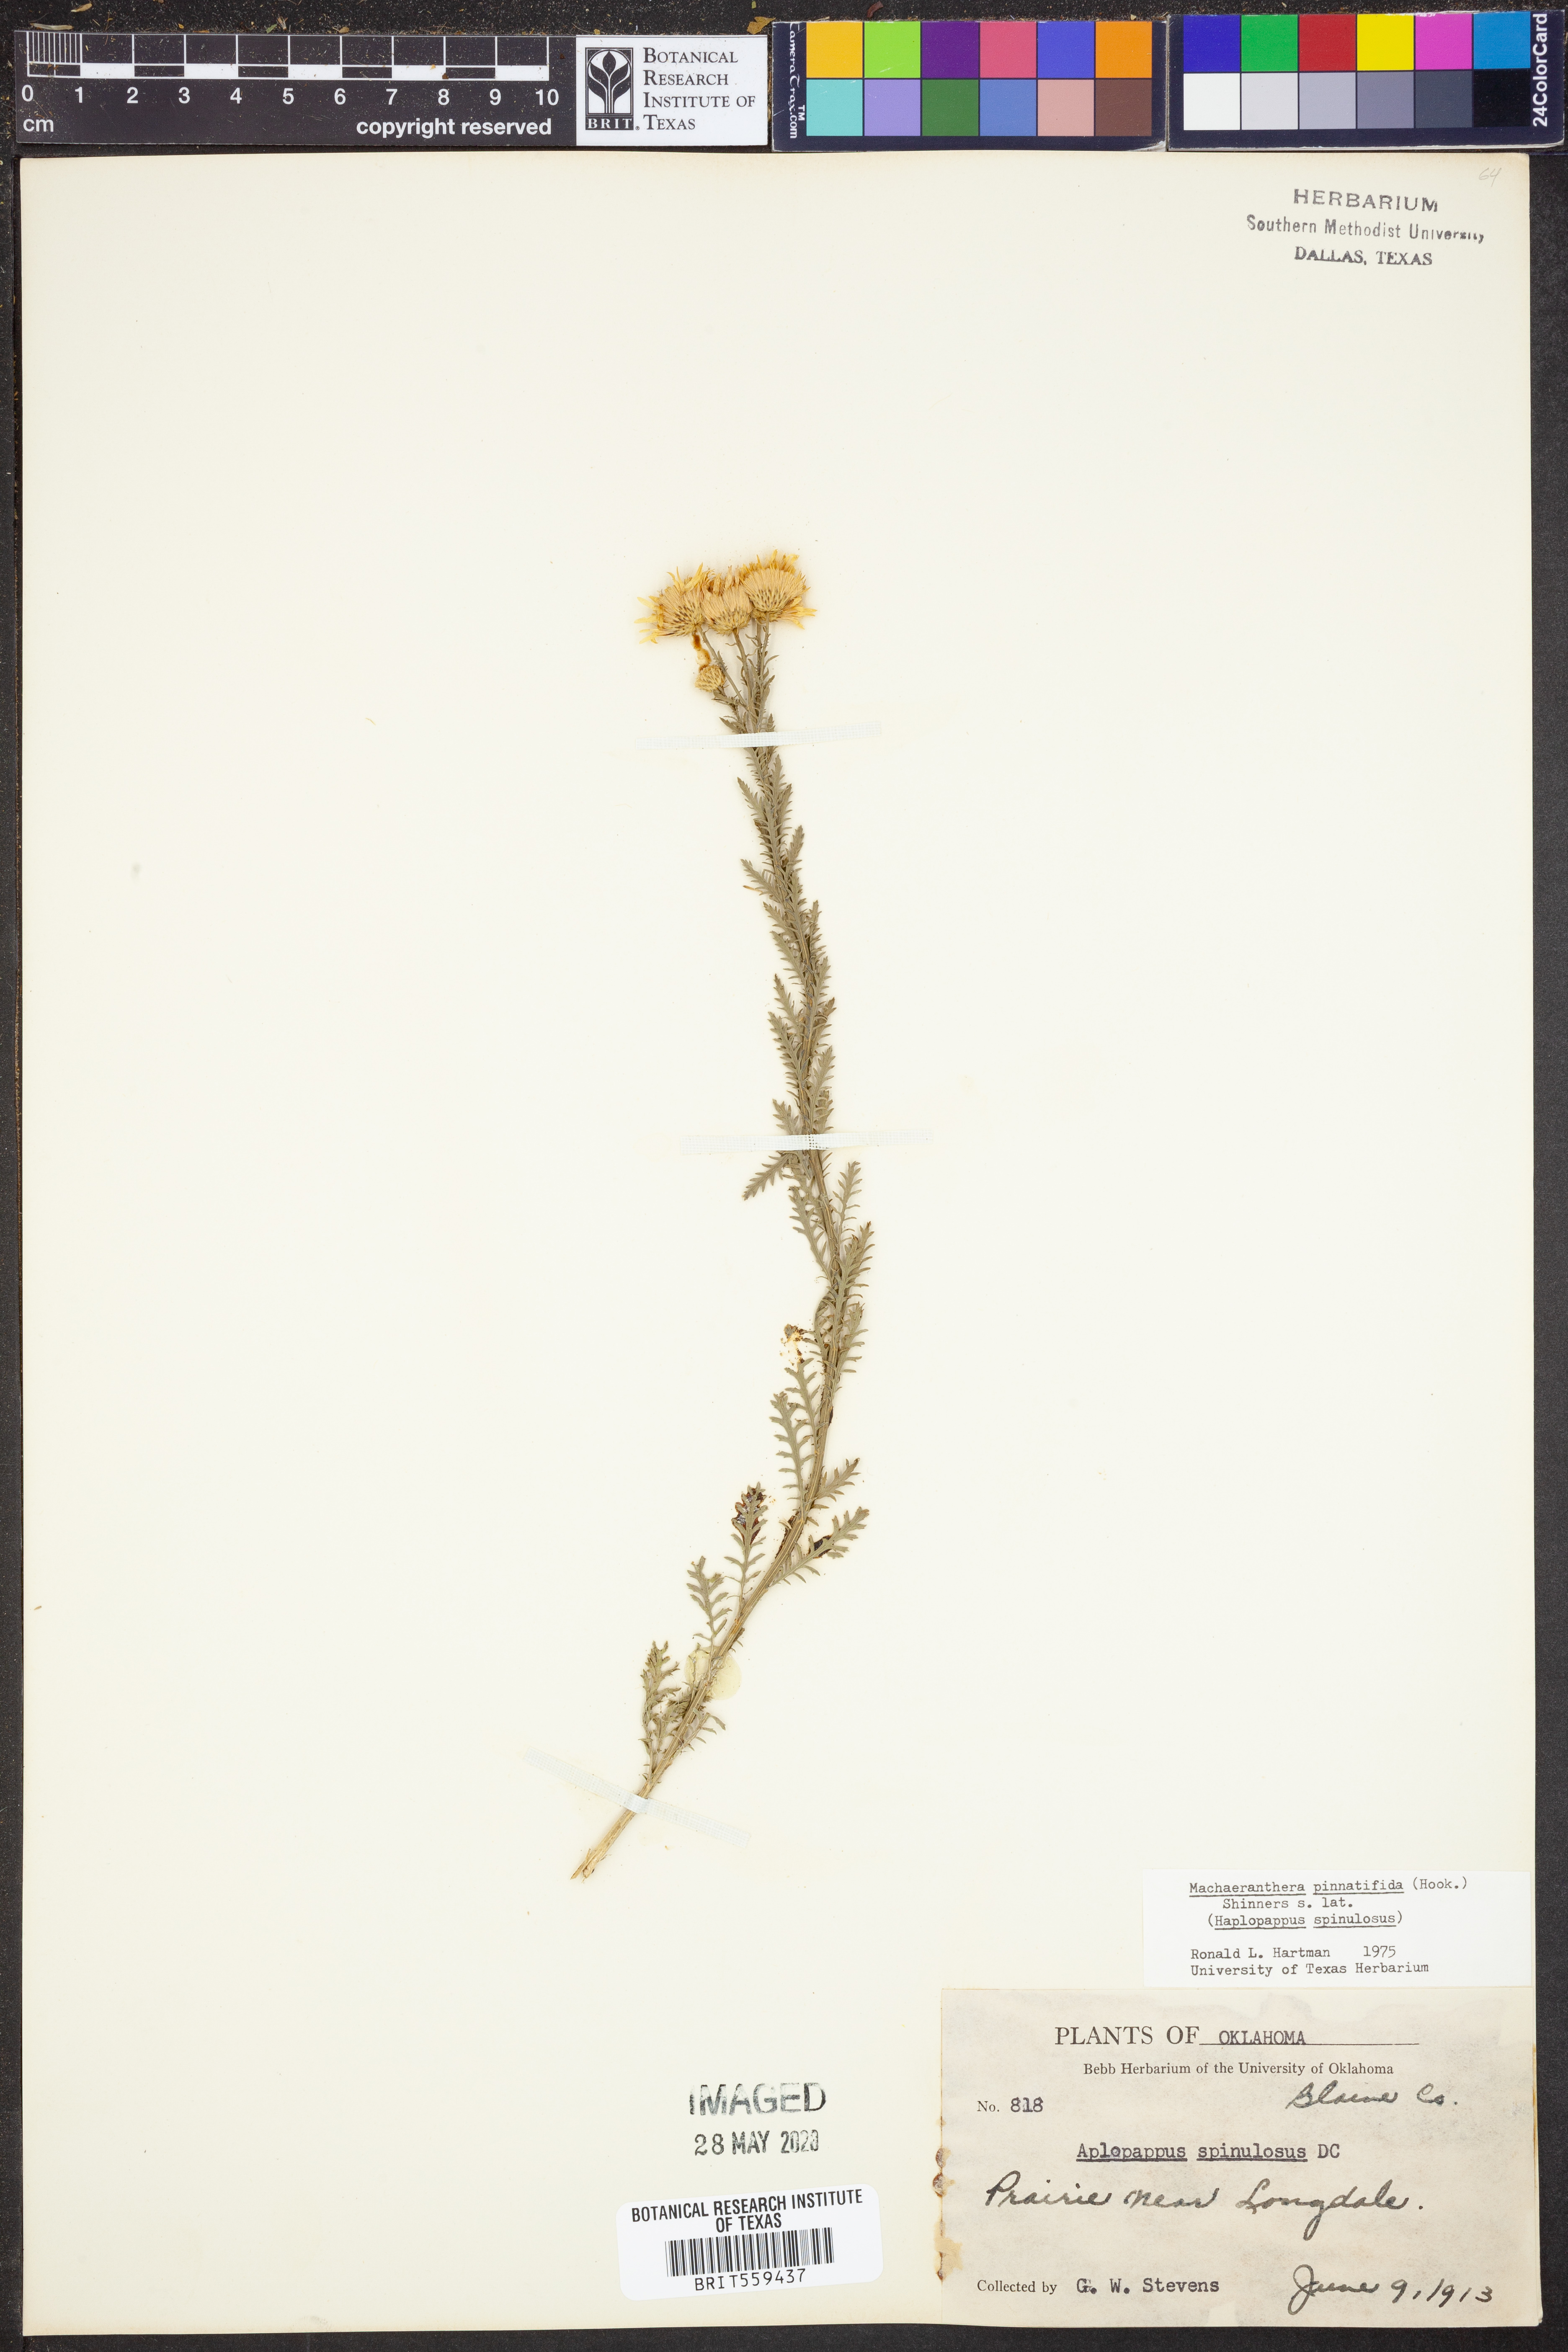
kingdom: Plantae
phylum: Tracheophyta
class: Magnoliopsida
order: Asterales
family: Asteraceae
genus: Xanthisma
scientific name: Xanthisma spinulosum
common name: Spiny goldenweed
